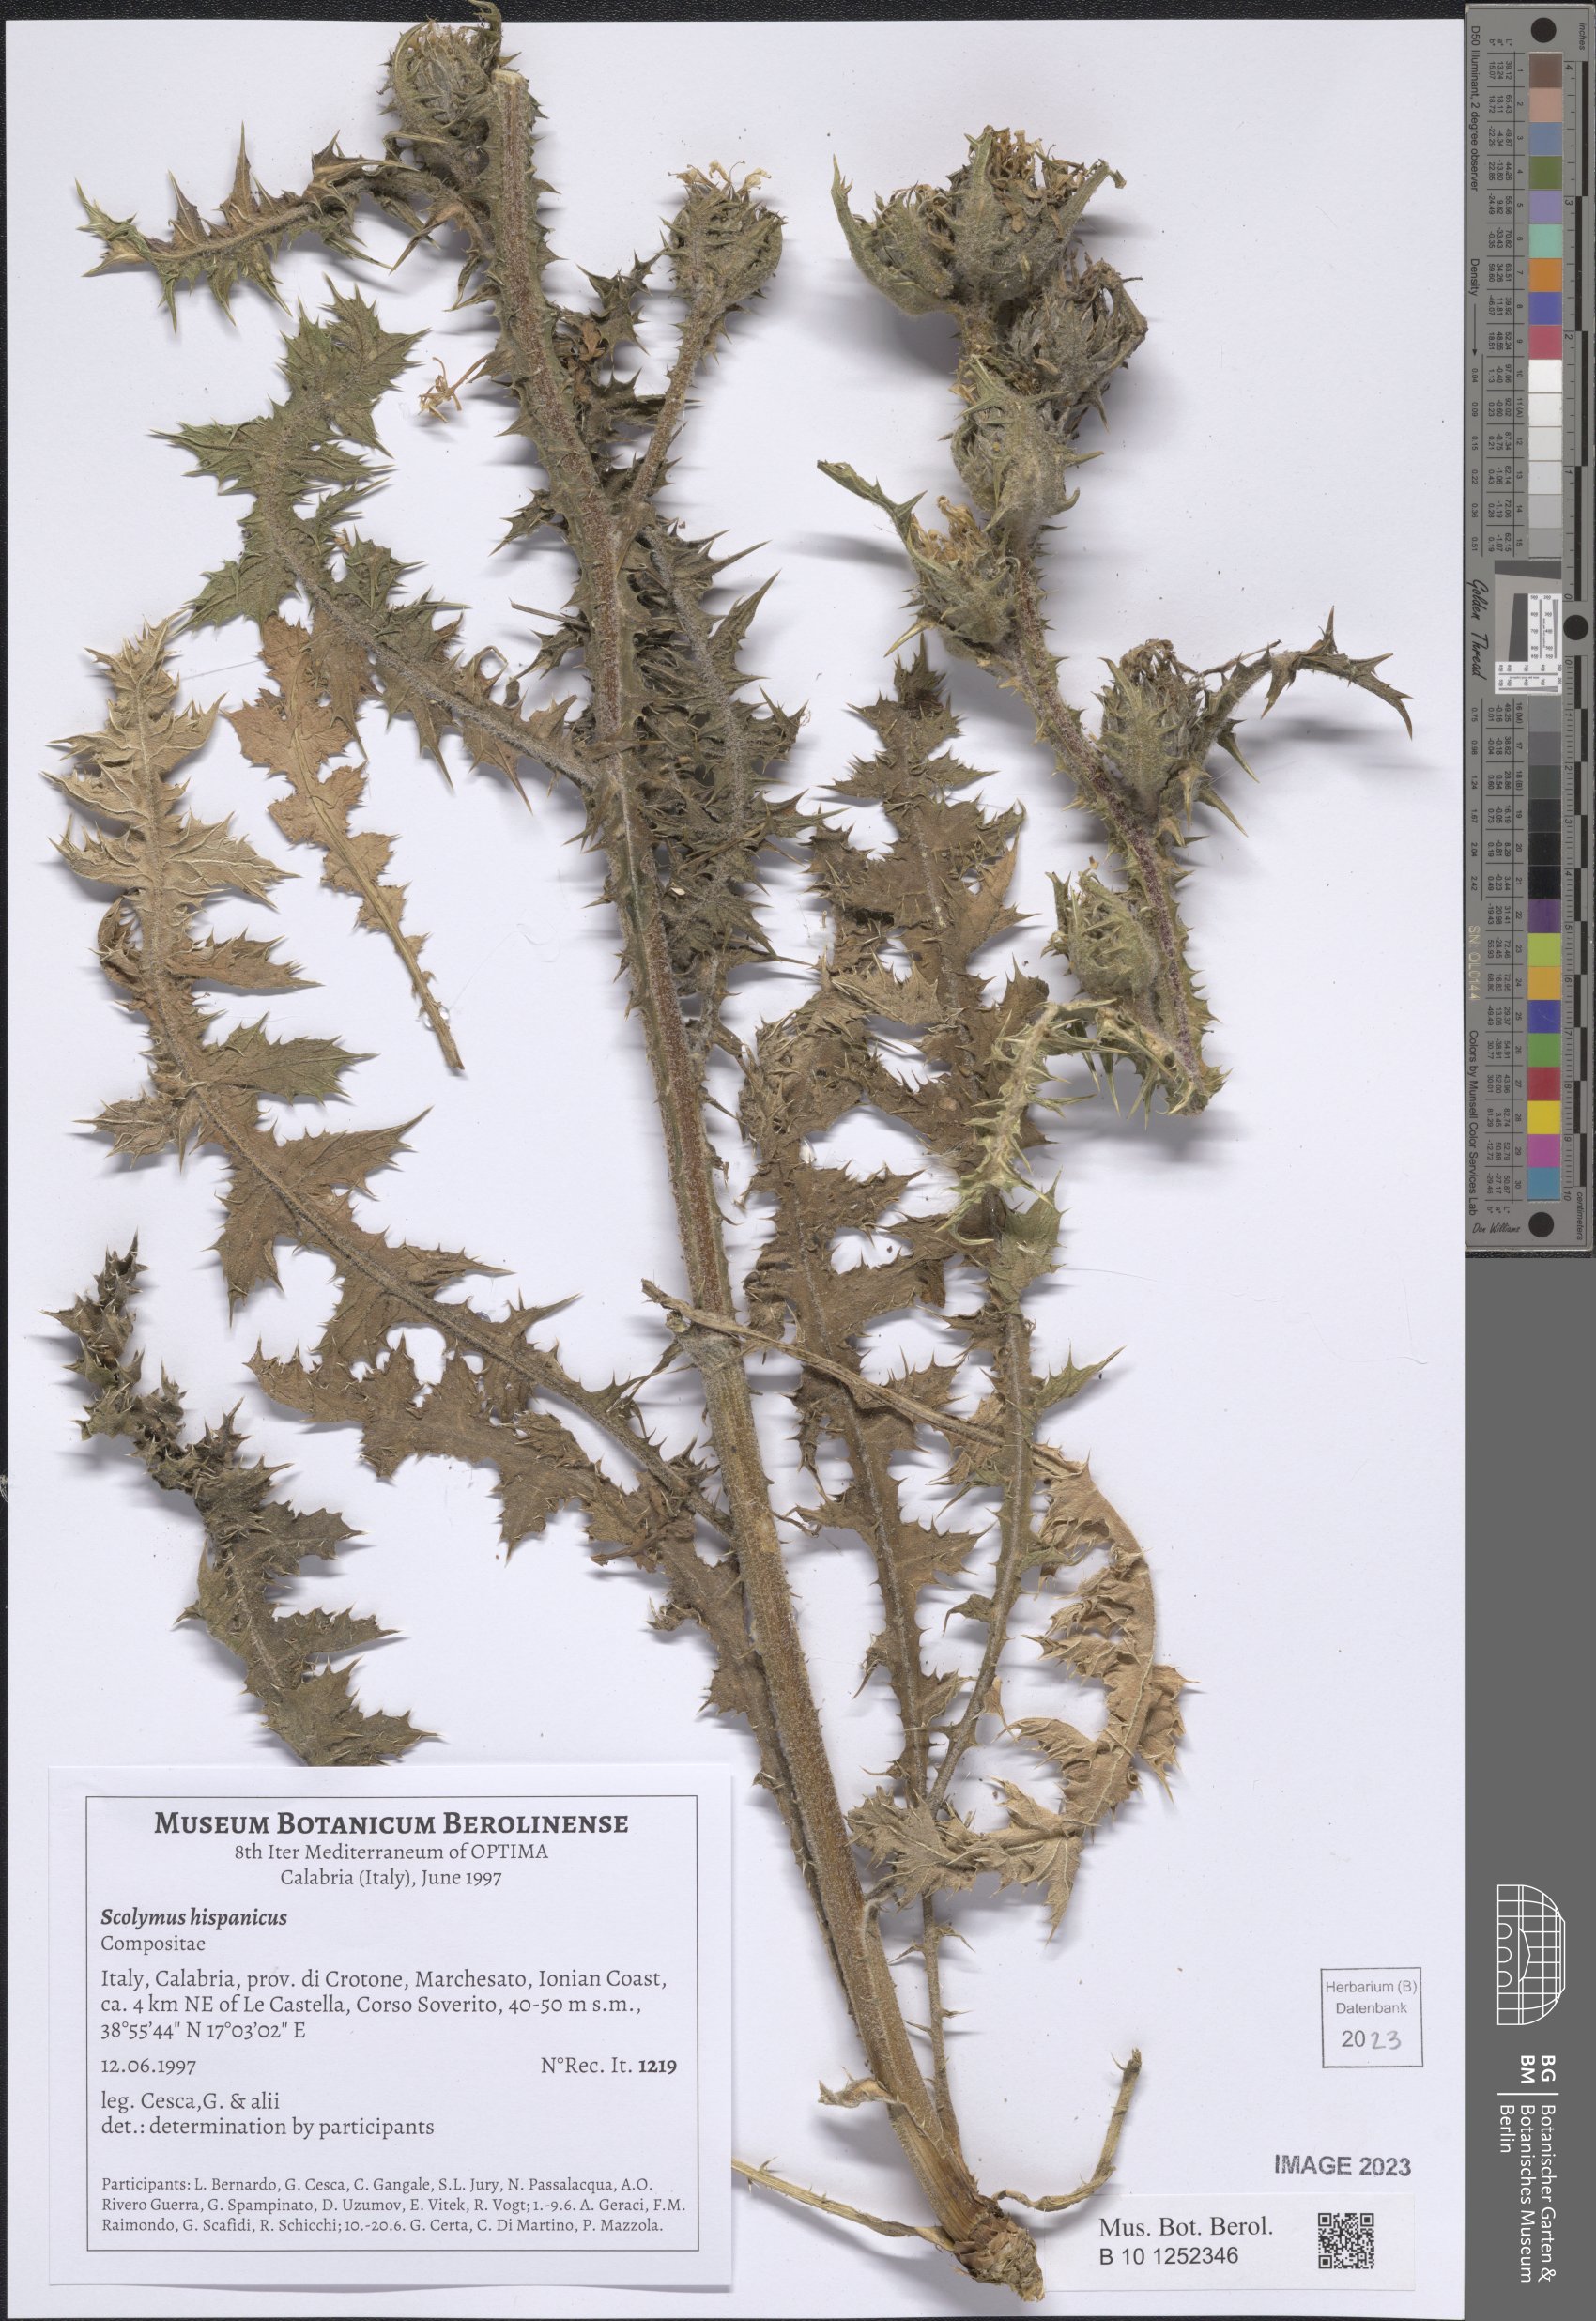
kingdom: Plantae
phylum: Tracheophyta
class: Magnoliopsida
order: Asterales
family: Asteraceae
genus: Scolymus
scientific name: Scolymus hispanicus
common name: Golden thistle
